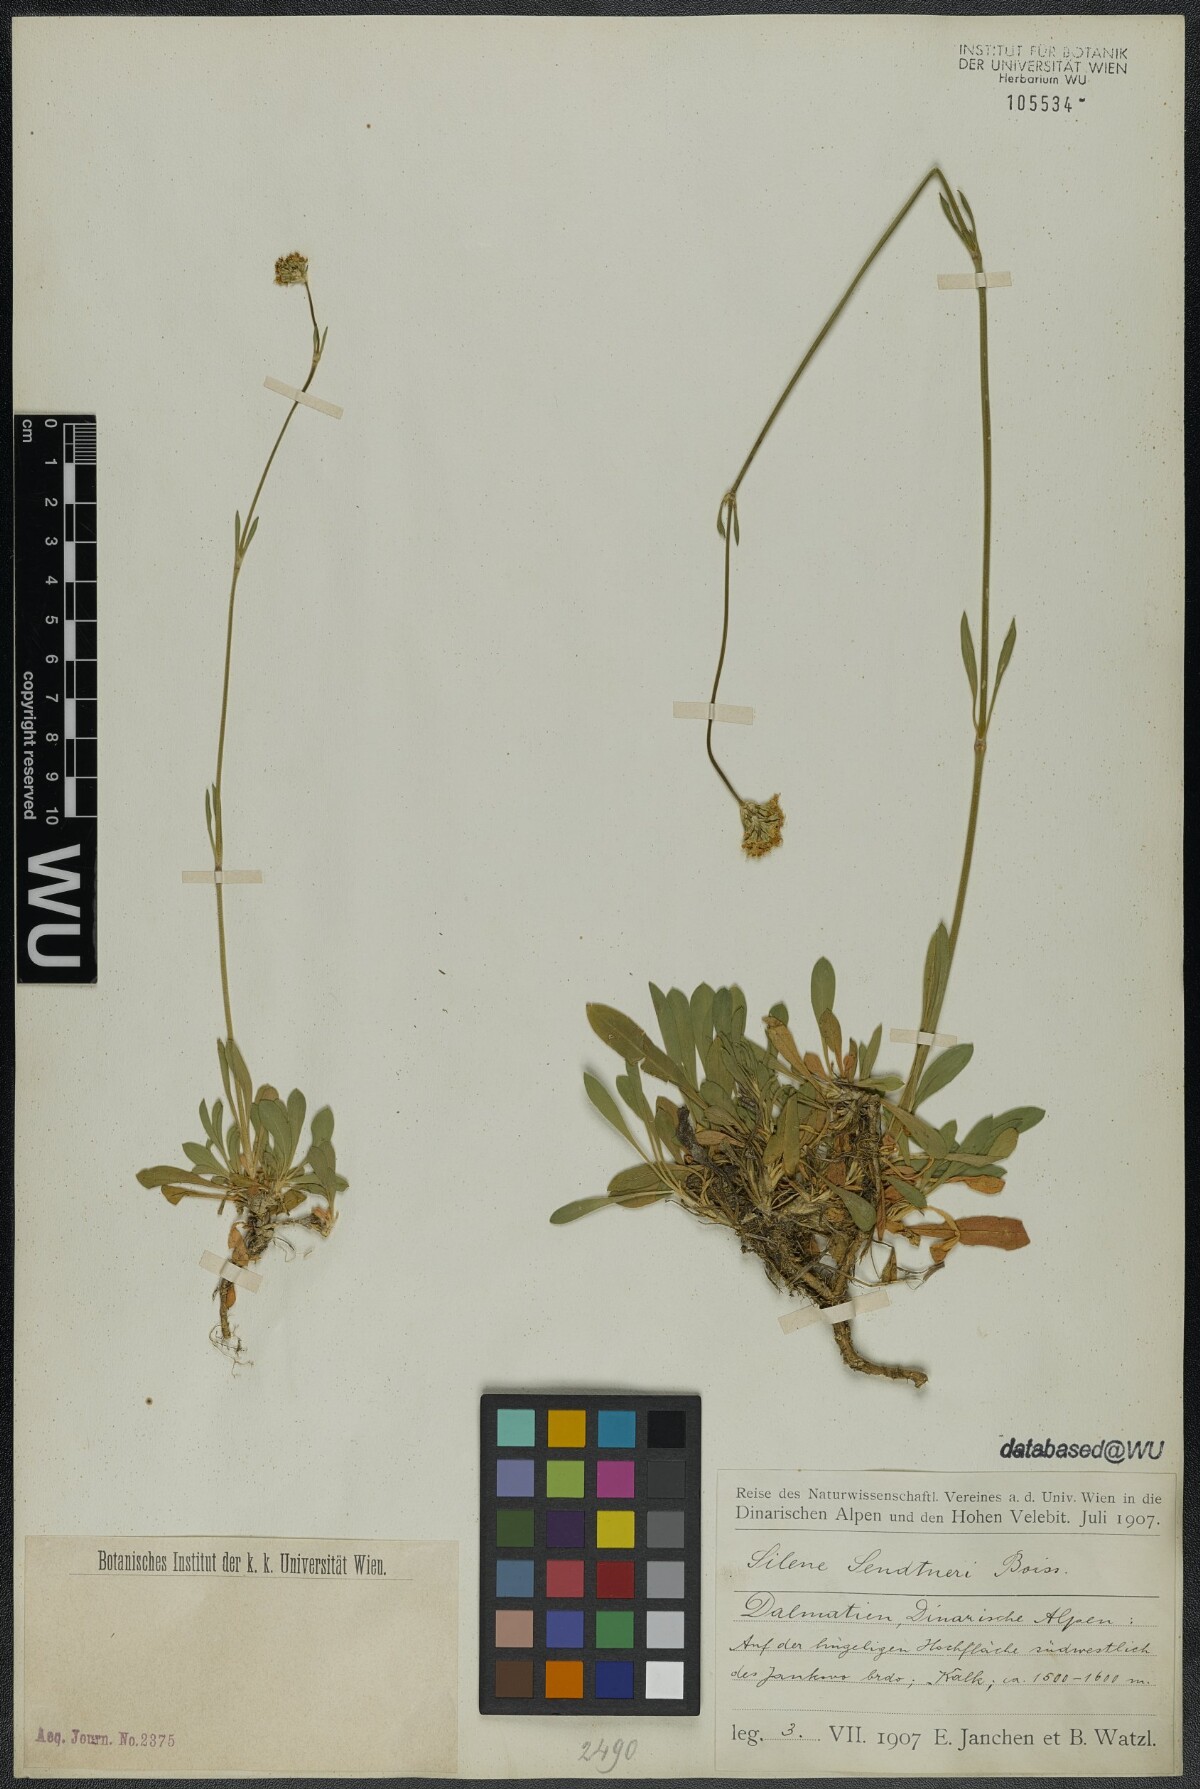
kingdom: Plantae
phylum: Tracheophyta
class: Magnoliopsida
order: Caryophyllales
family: Caryophyllaceae
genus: Silene
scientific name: Silene sendtneri
